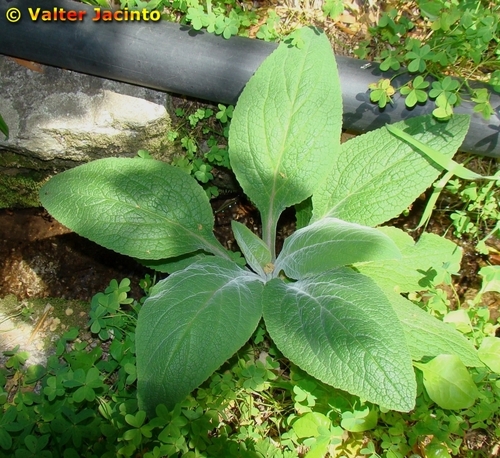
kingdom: Plantae
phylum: Tracheophyta
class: Magnoliopsida
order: Lamiales
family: Plantaginaceae
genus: Digitalis
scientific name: Digitalis purpurea
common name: Foxglove
